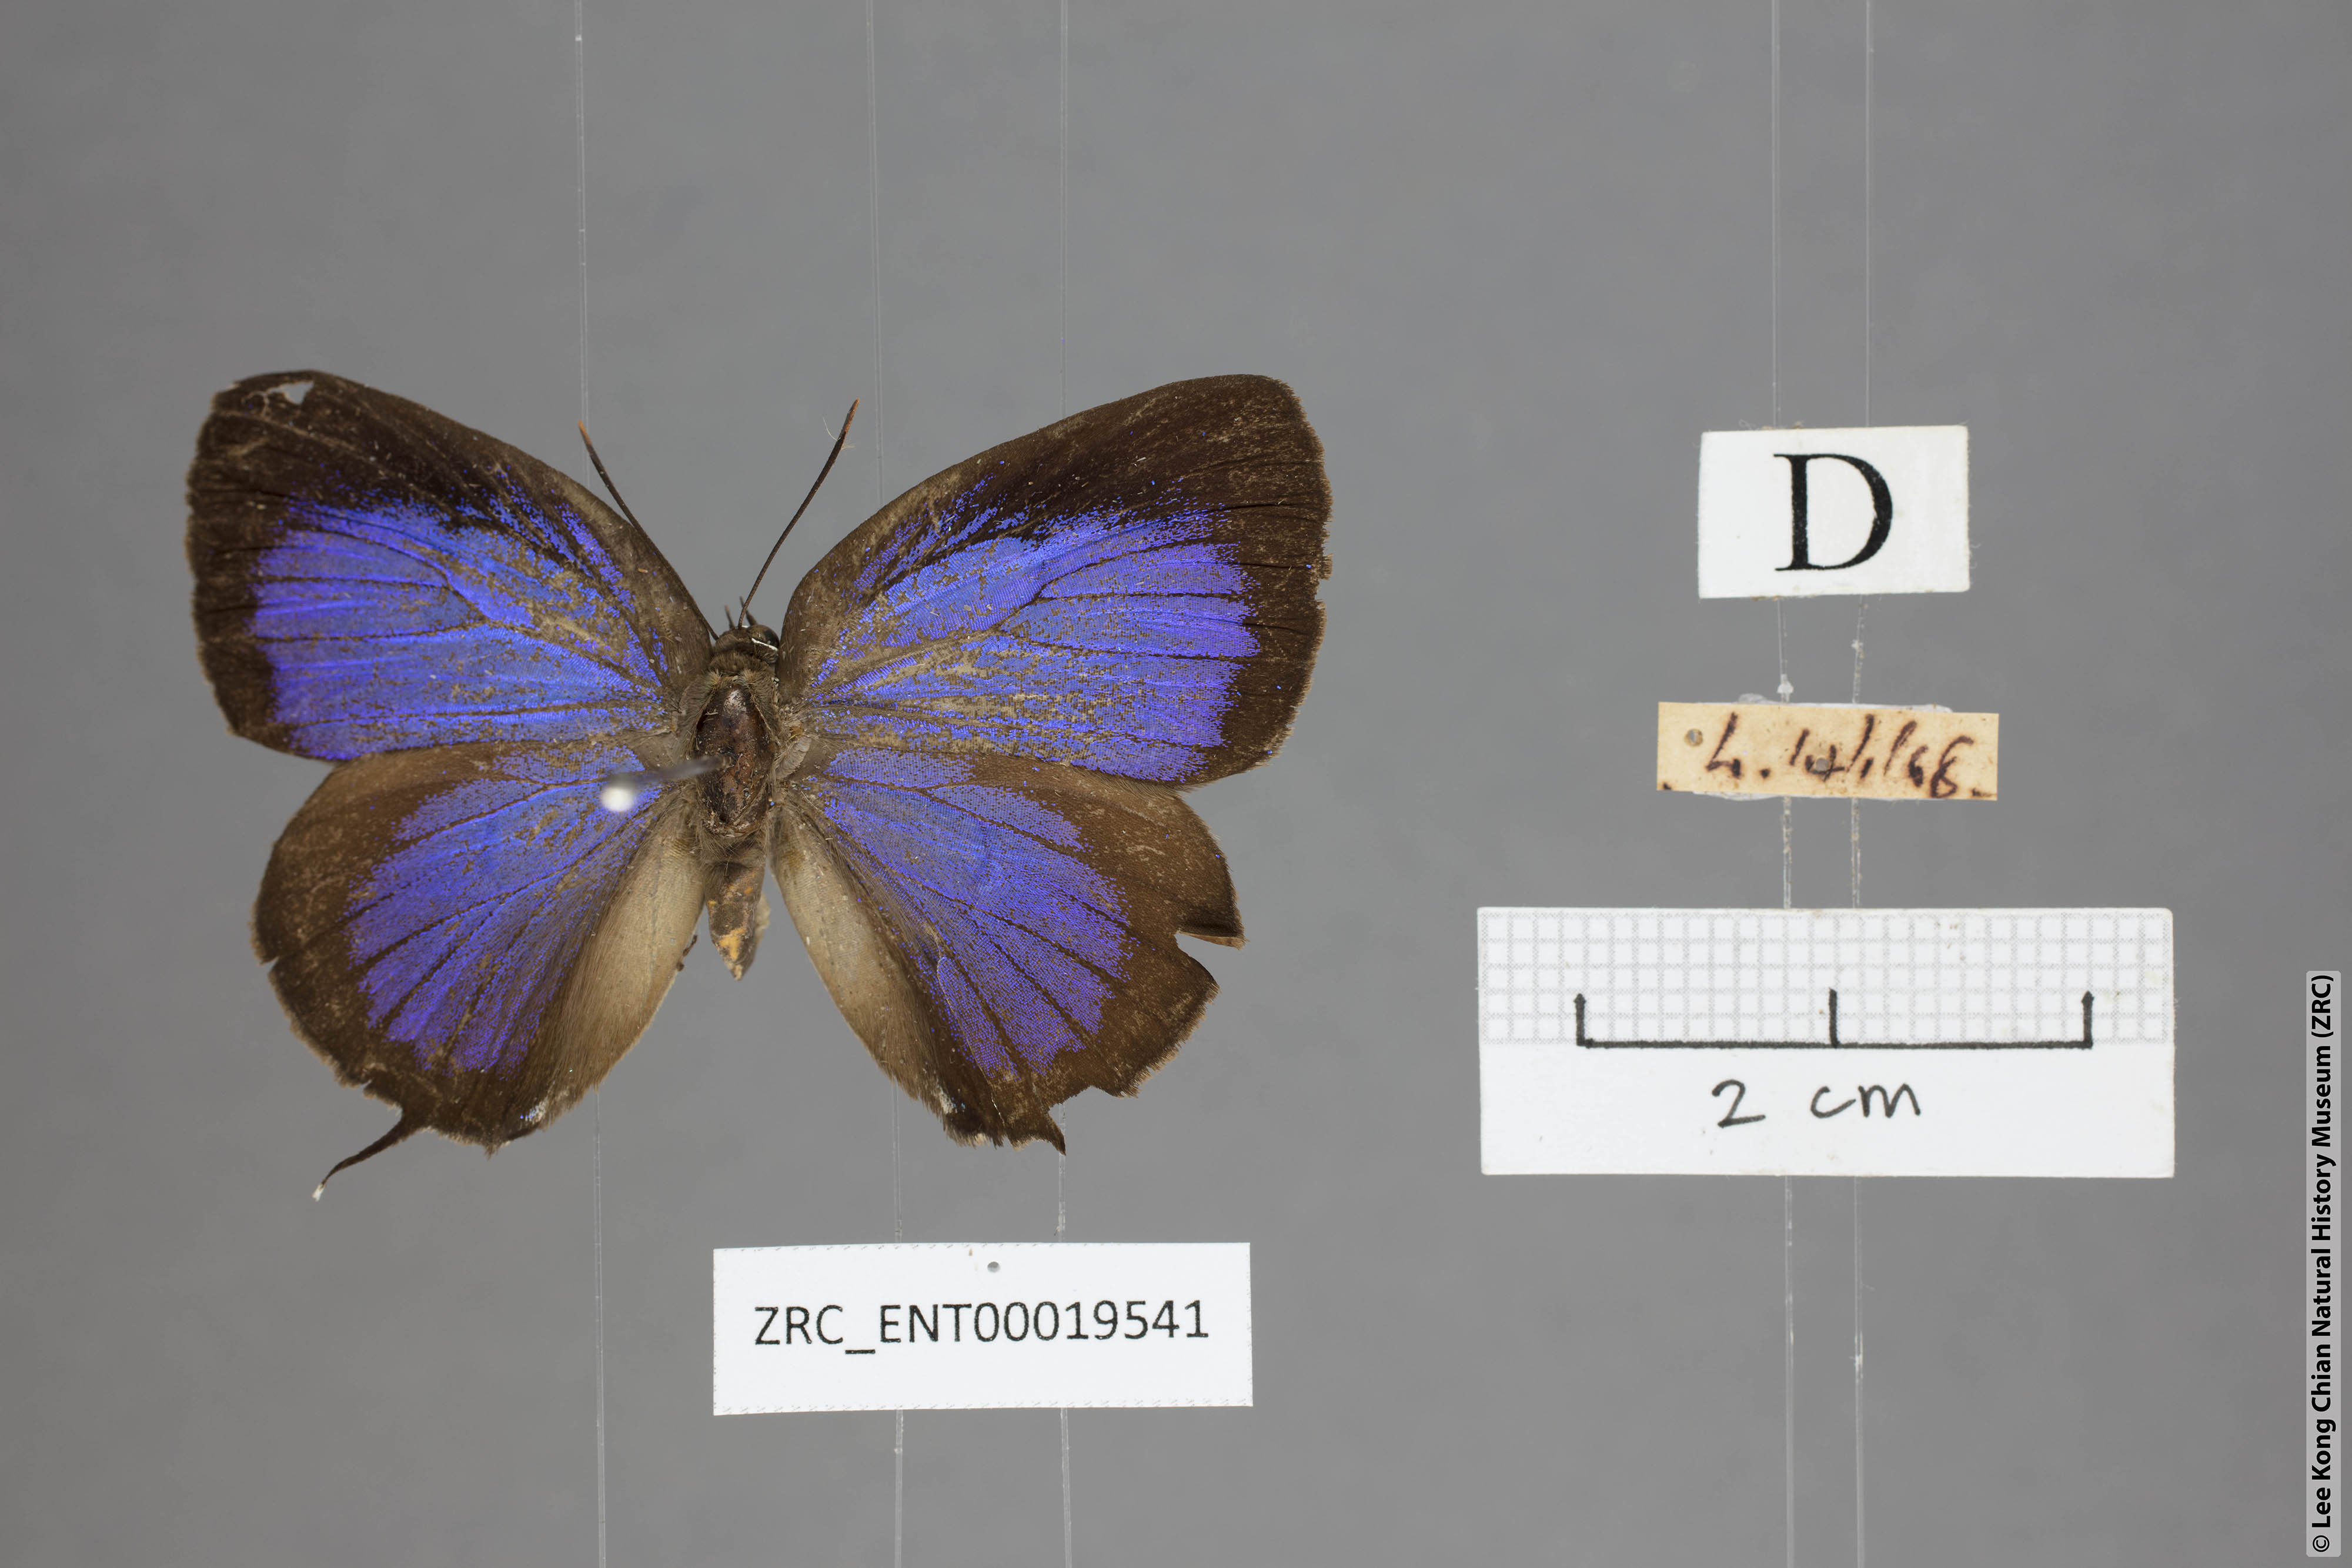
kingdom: Animalia
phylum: Arthropoda
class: Insecta
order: Lepidoptera
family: Lycaenidae
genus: Arhopala
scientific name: Arhopala horsfieldi
